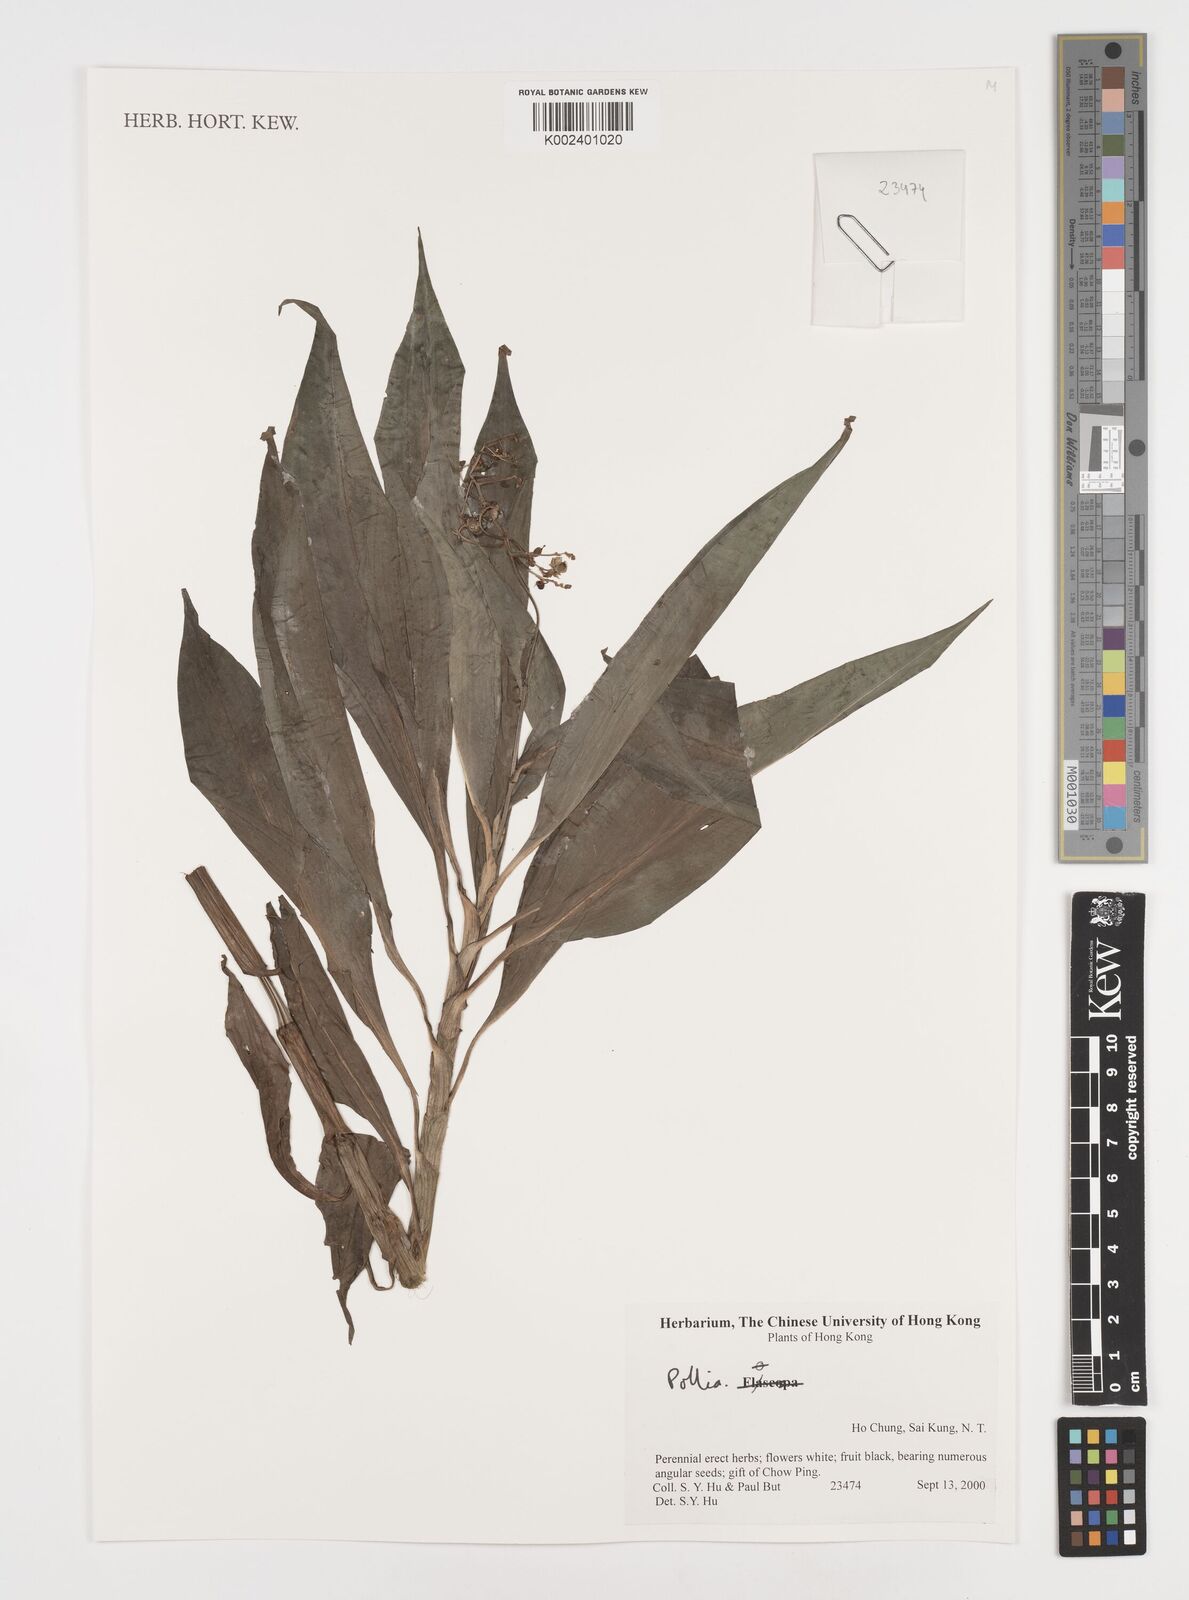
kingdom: Plantae
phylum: Tracheophyta
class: Liliopsida
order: Commelinales
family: Commelinaceae
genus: Pollia
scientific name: Pollia
